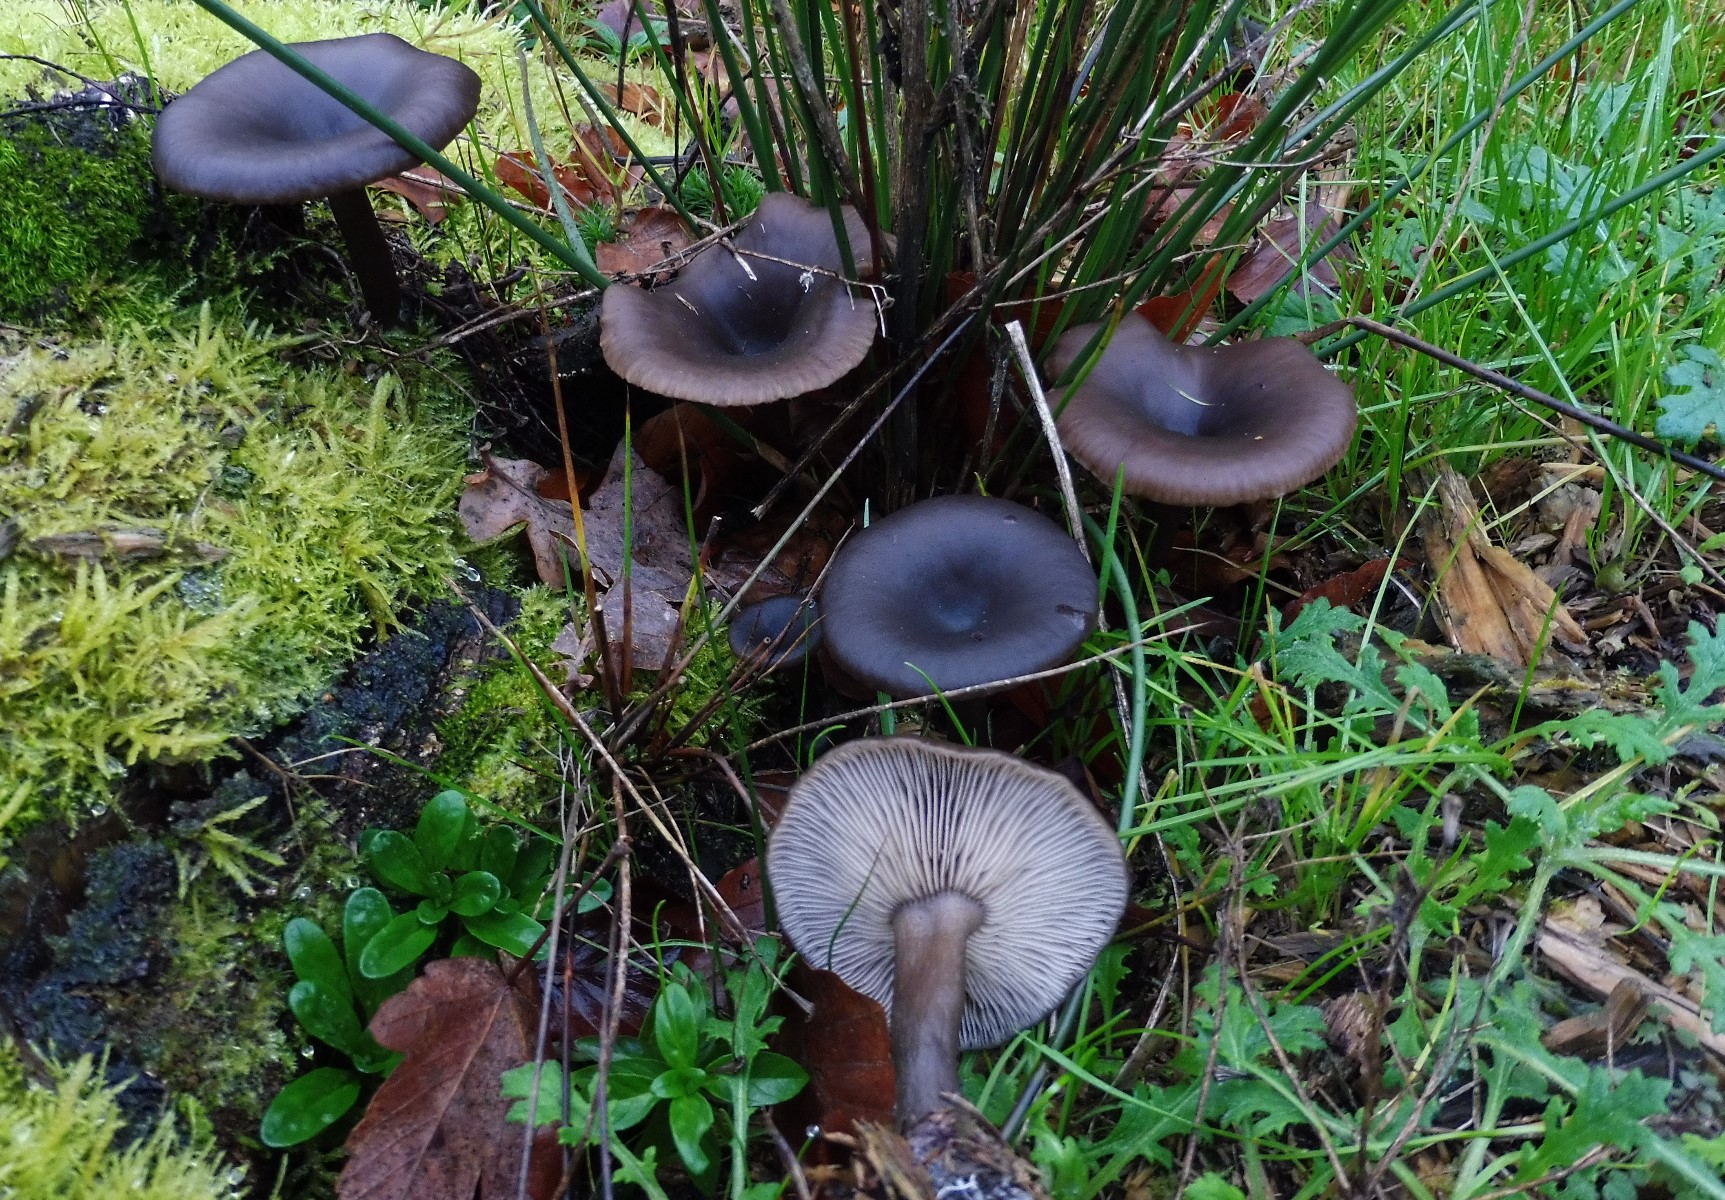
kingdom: Fungi
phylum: Basidiomycota
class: Agaricomycetes
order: Agaricales
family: Pseudoclitocybaceae
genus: Pseudoclitocybe
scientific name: Pseudoclitocybe cyathiformis
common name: almindelig bægertragthat
